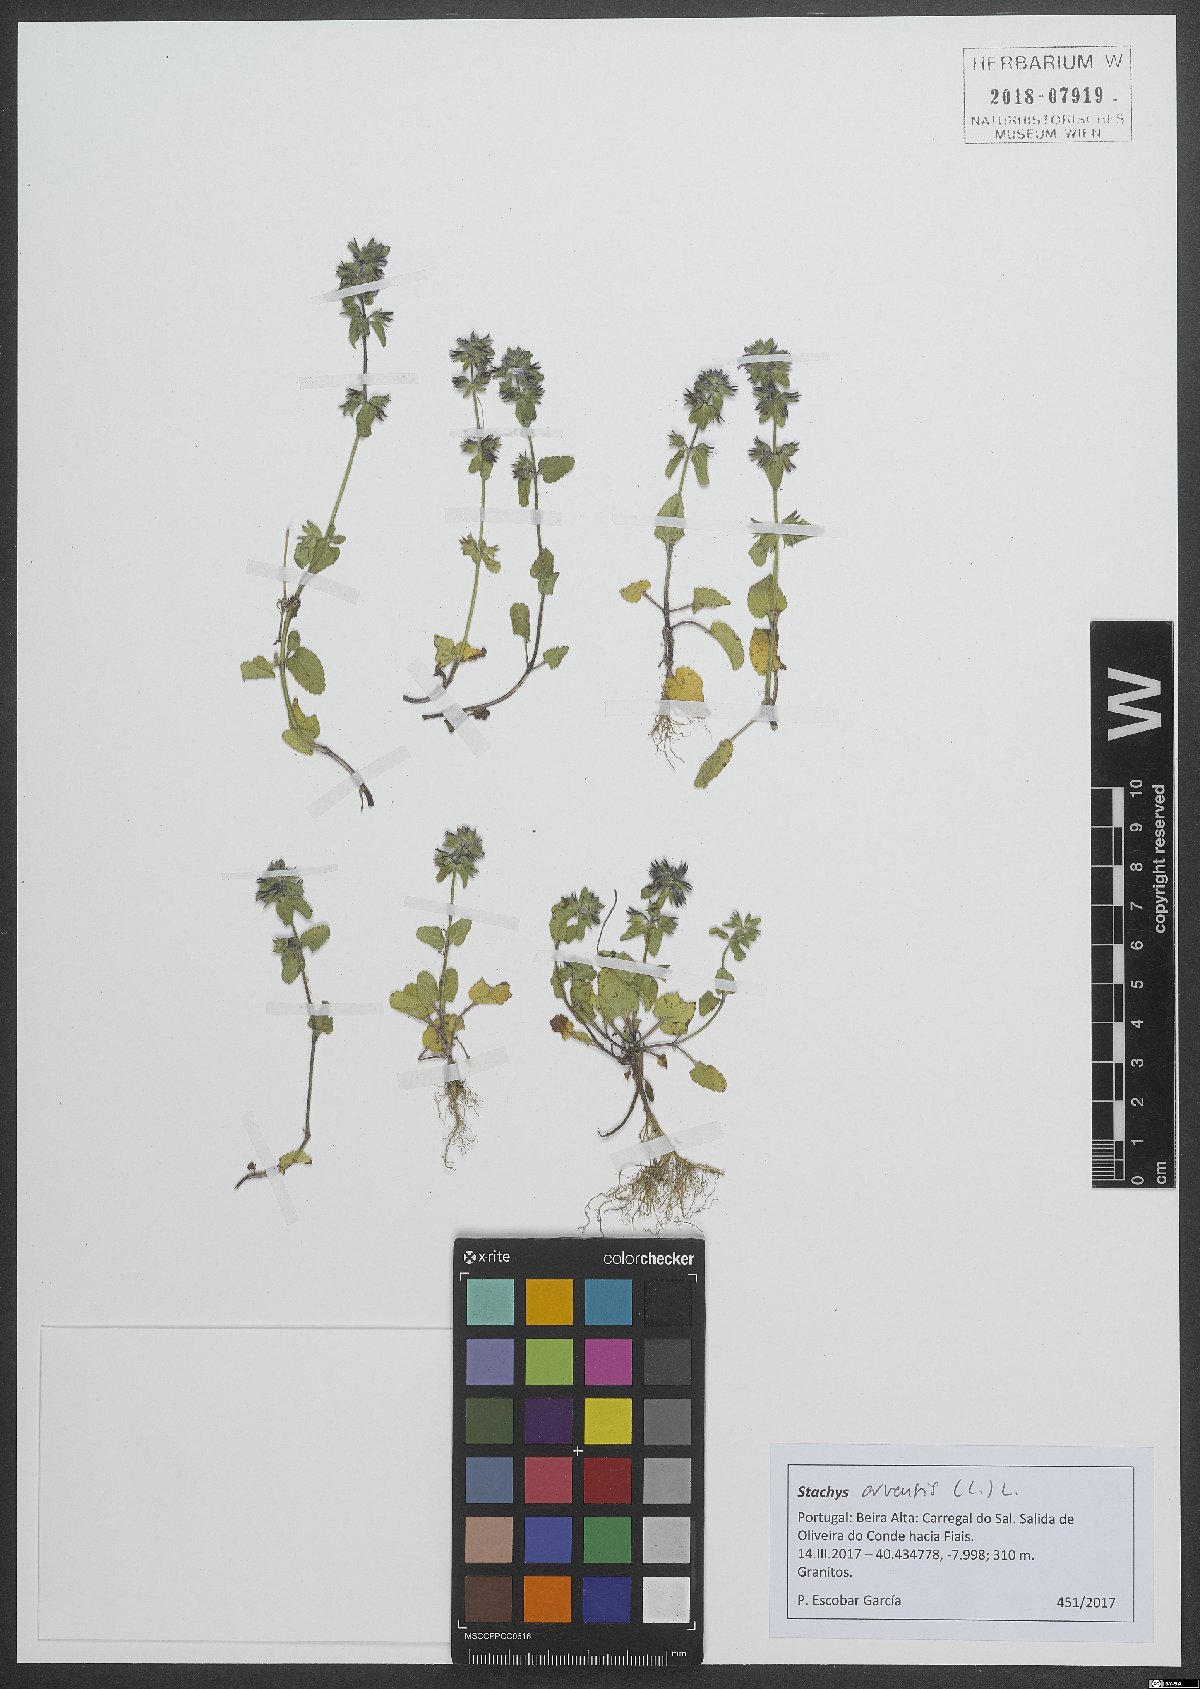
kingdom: Plantae
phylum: Tracheophyta
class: Magnoliopsida
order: Lamiales
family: Lamiaceae
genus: Stachys
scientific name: Stachys arvensis
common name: Field woundwort
